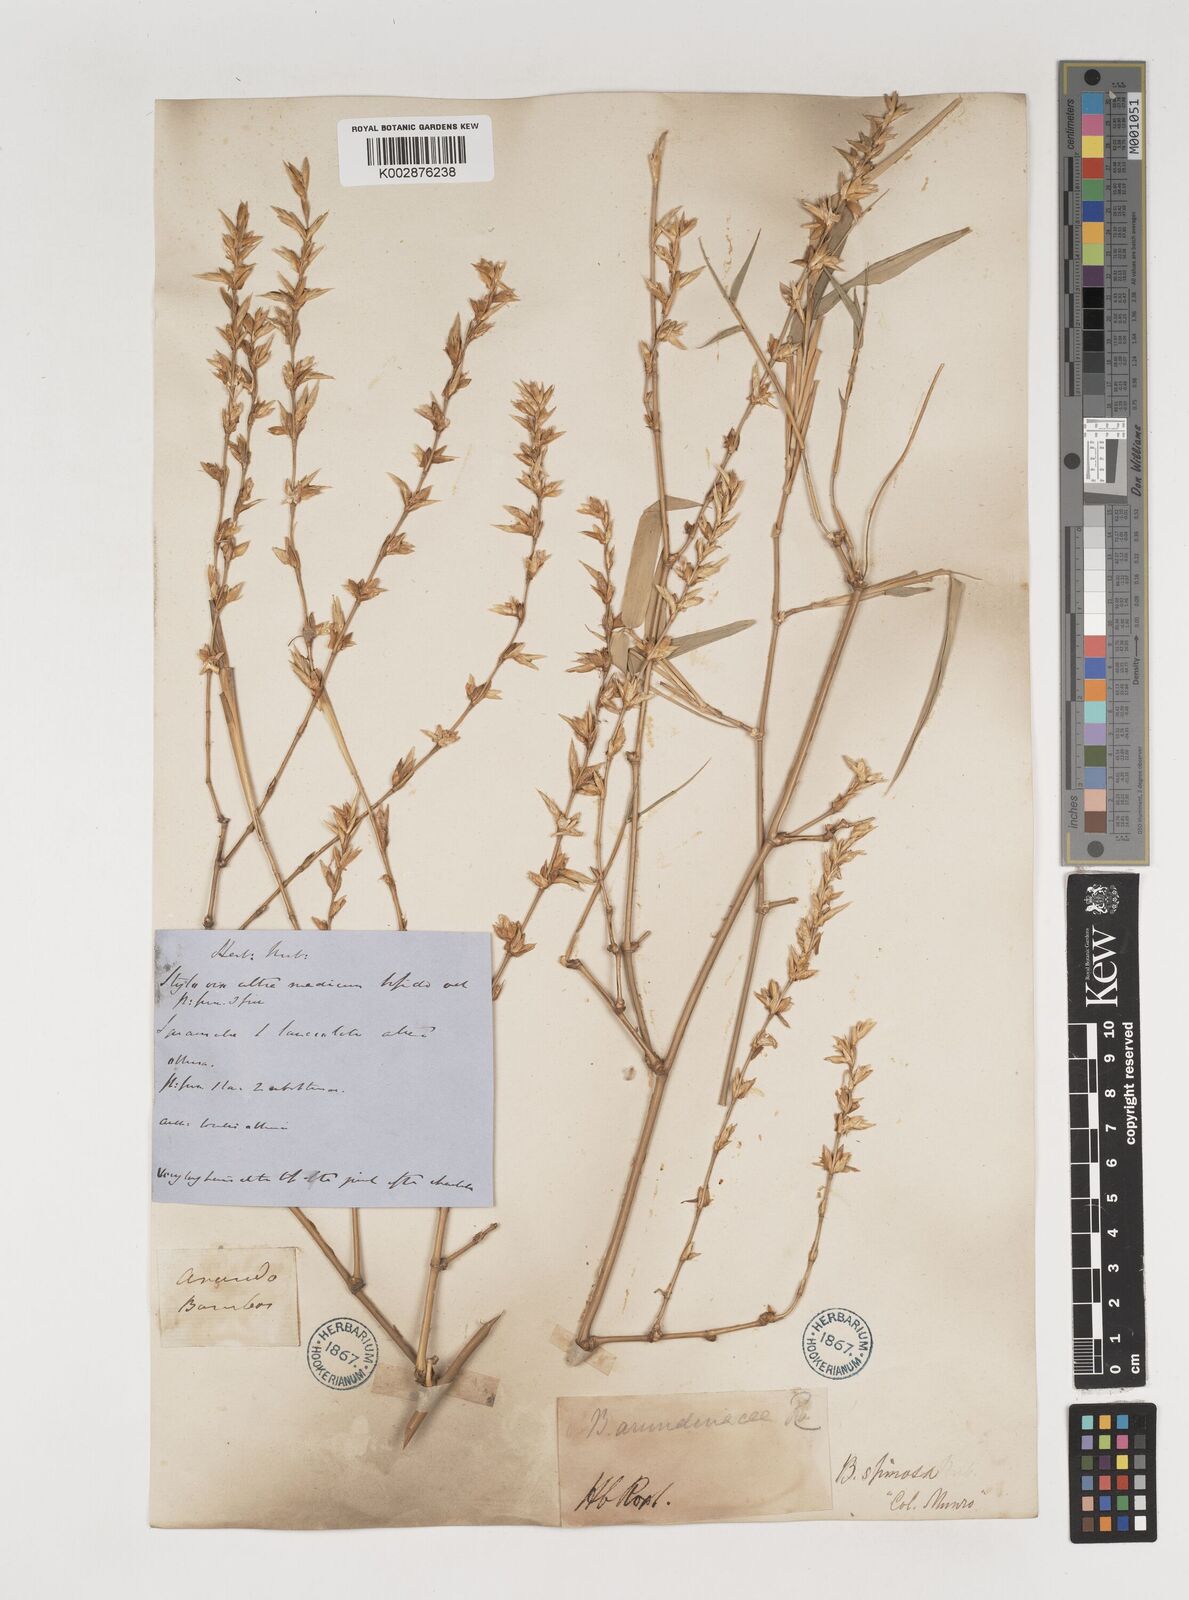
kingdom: Plantae
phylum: Tracheophyta
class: Liliopsida
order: Poales
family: Poaceae
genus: Bambusa
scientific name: Bambusa bambos
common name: Indian thorny bamboo
